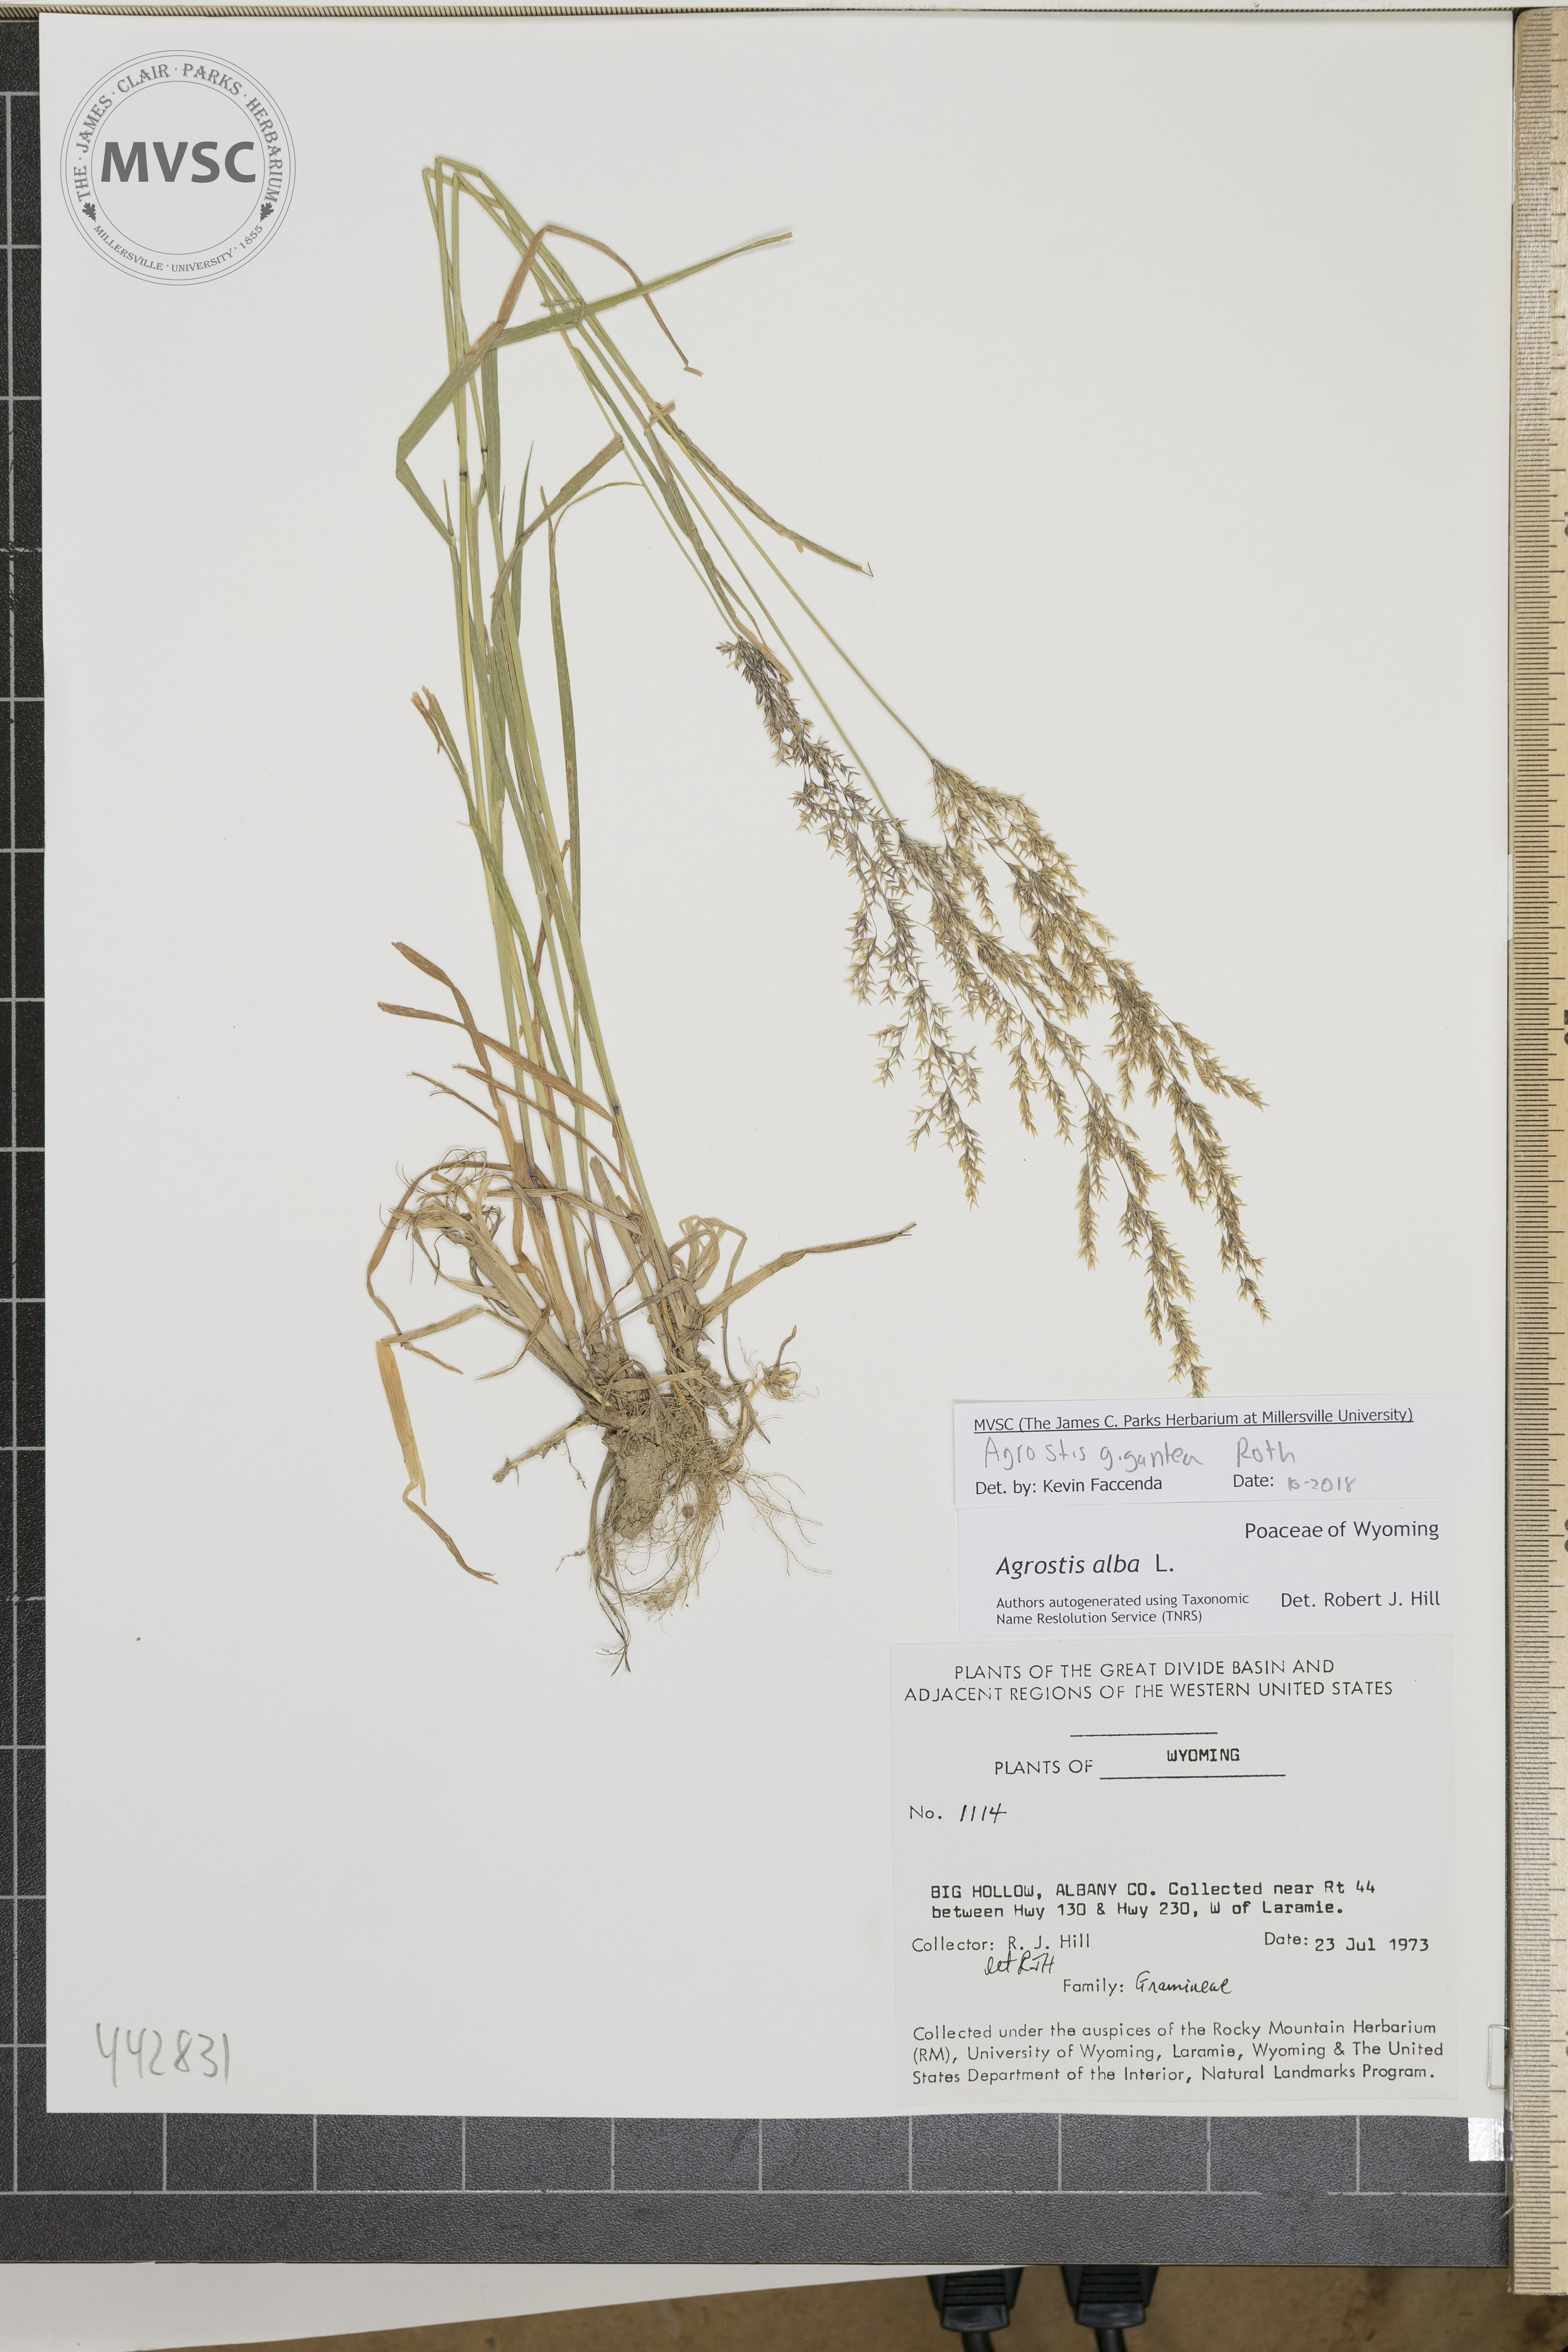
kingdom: Plantae
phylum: Tracheophyta
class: Liliopsida
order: Poales
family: Poaceae
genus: Agrostis
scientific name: Agrostis gigantea
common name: Black bent
